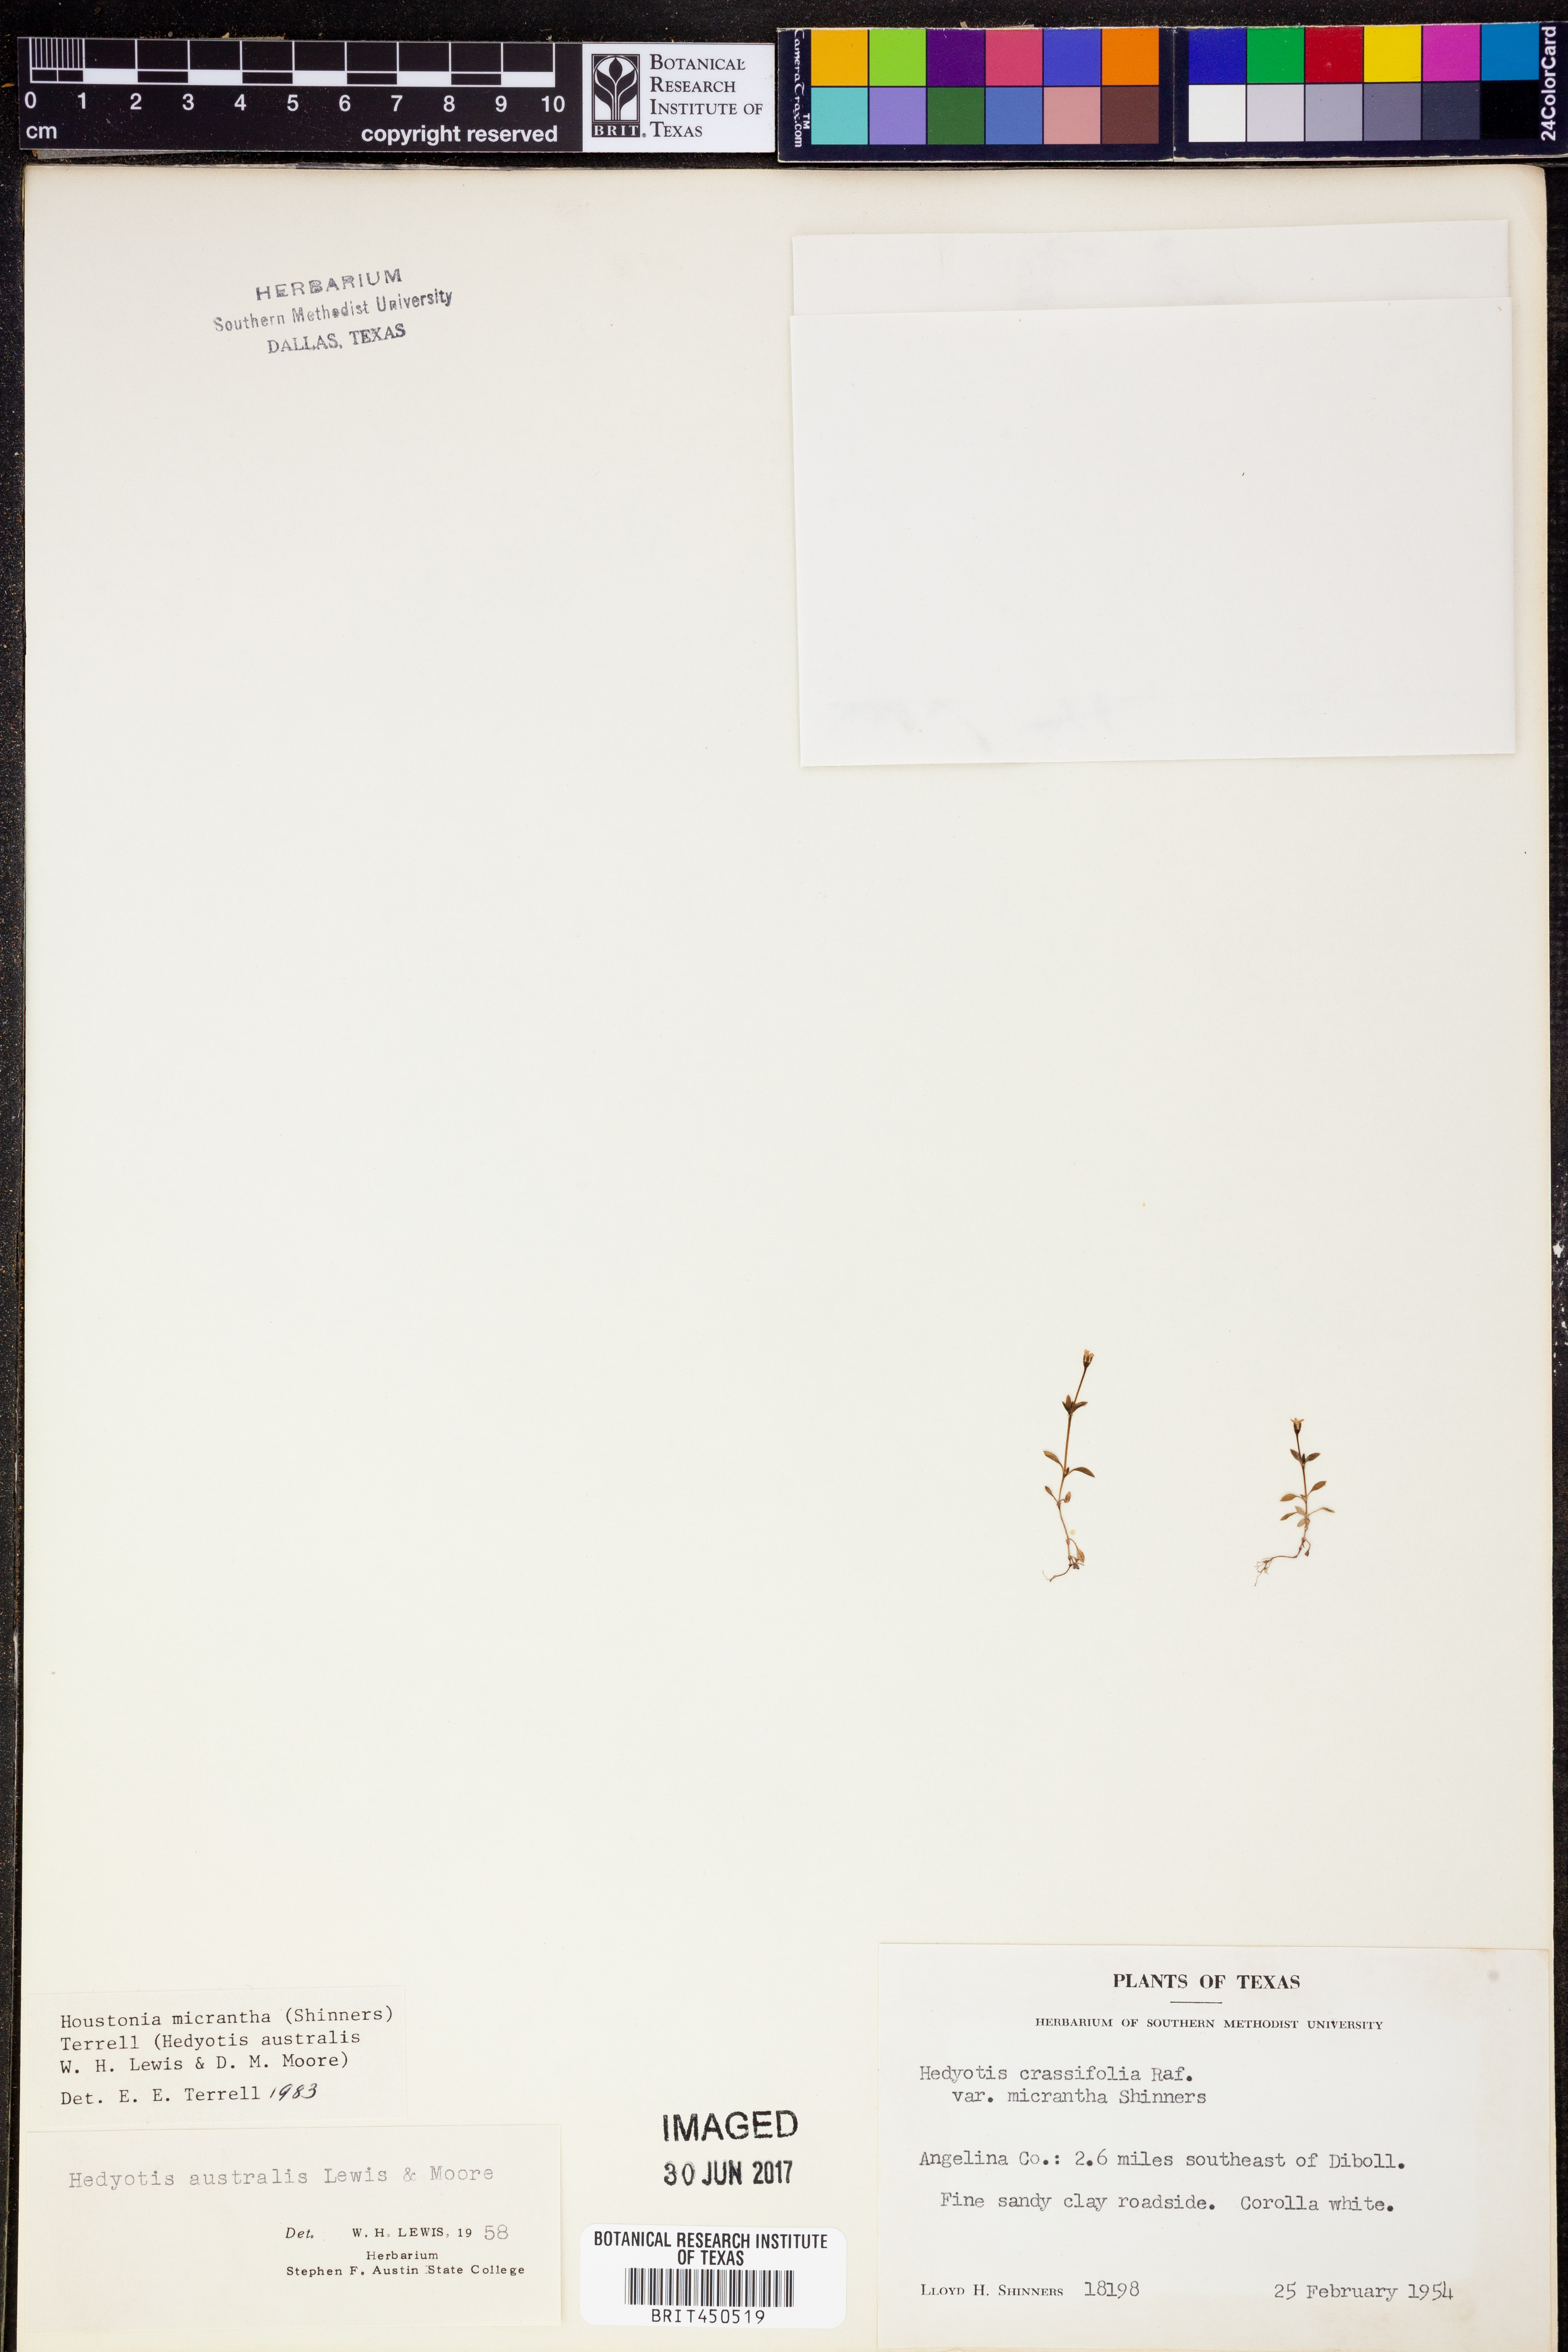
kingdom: Plantae
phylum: Tracheophyta
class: Magnoliopsida
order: Gentianales
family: Rubiaceae
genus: Houstonia
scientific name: Houstonia micrantha
